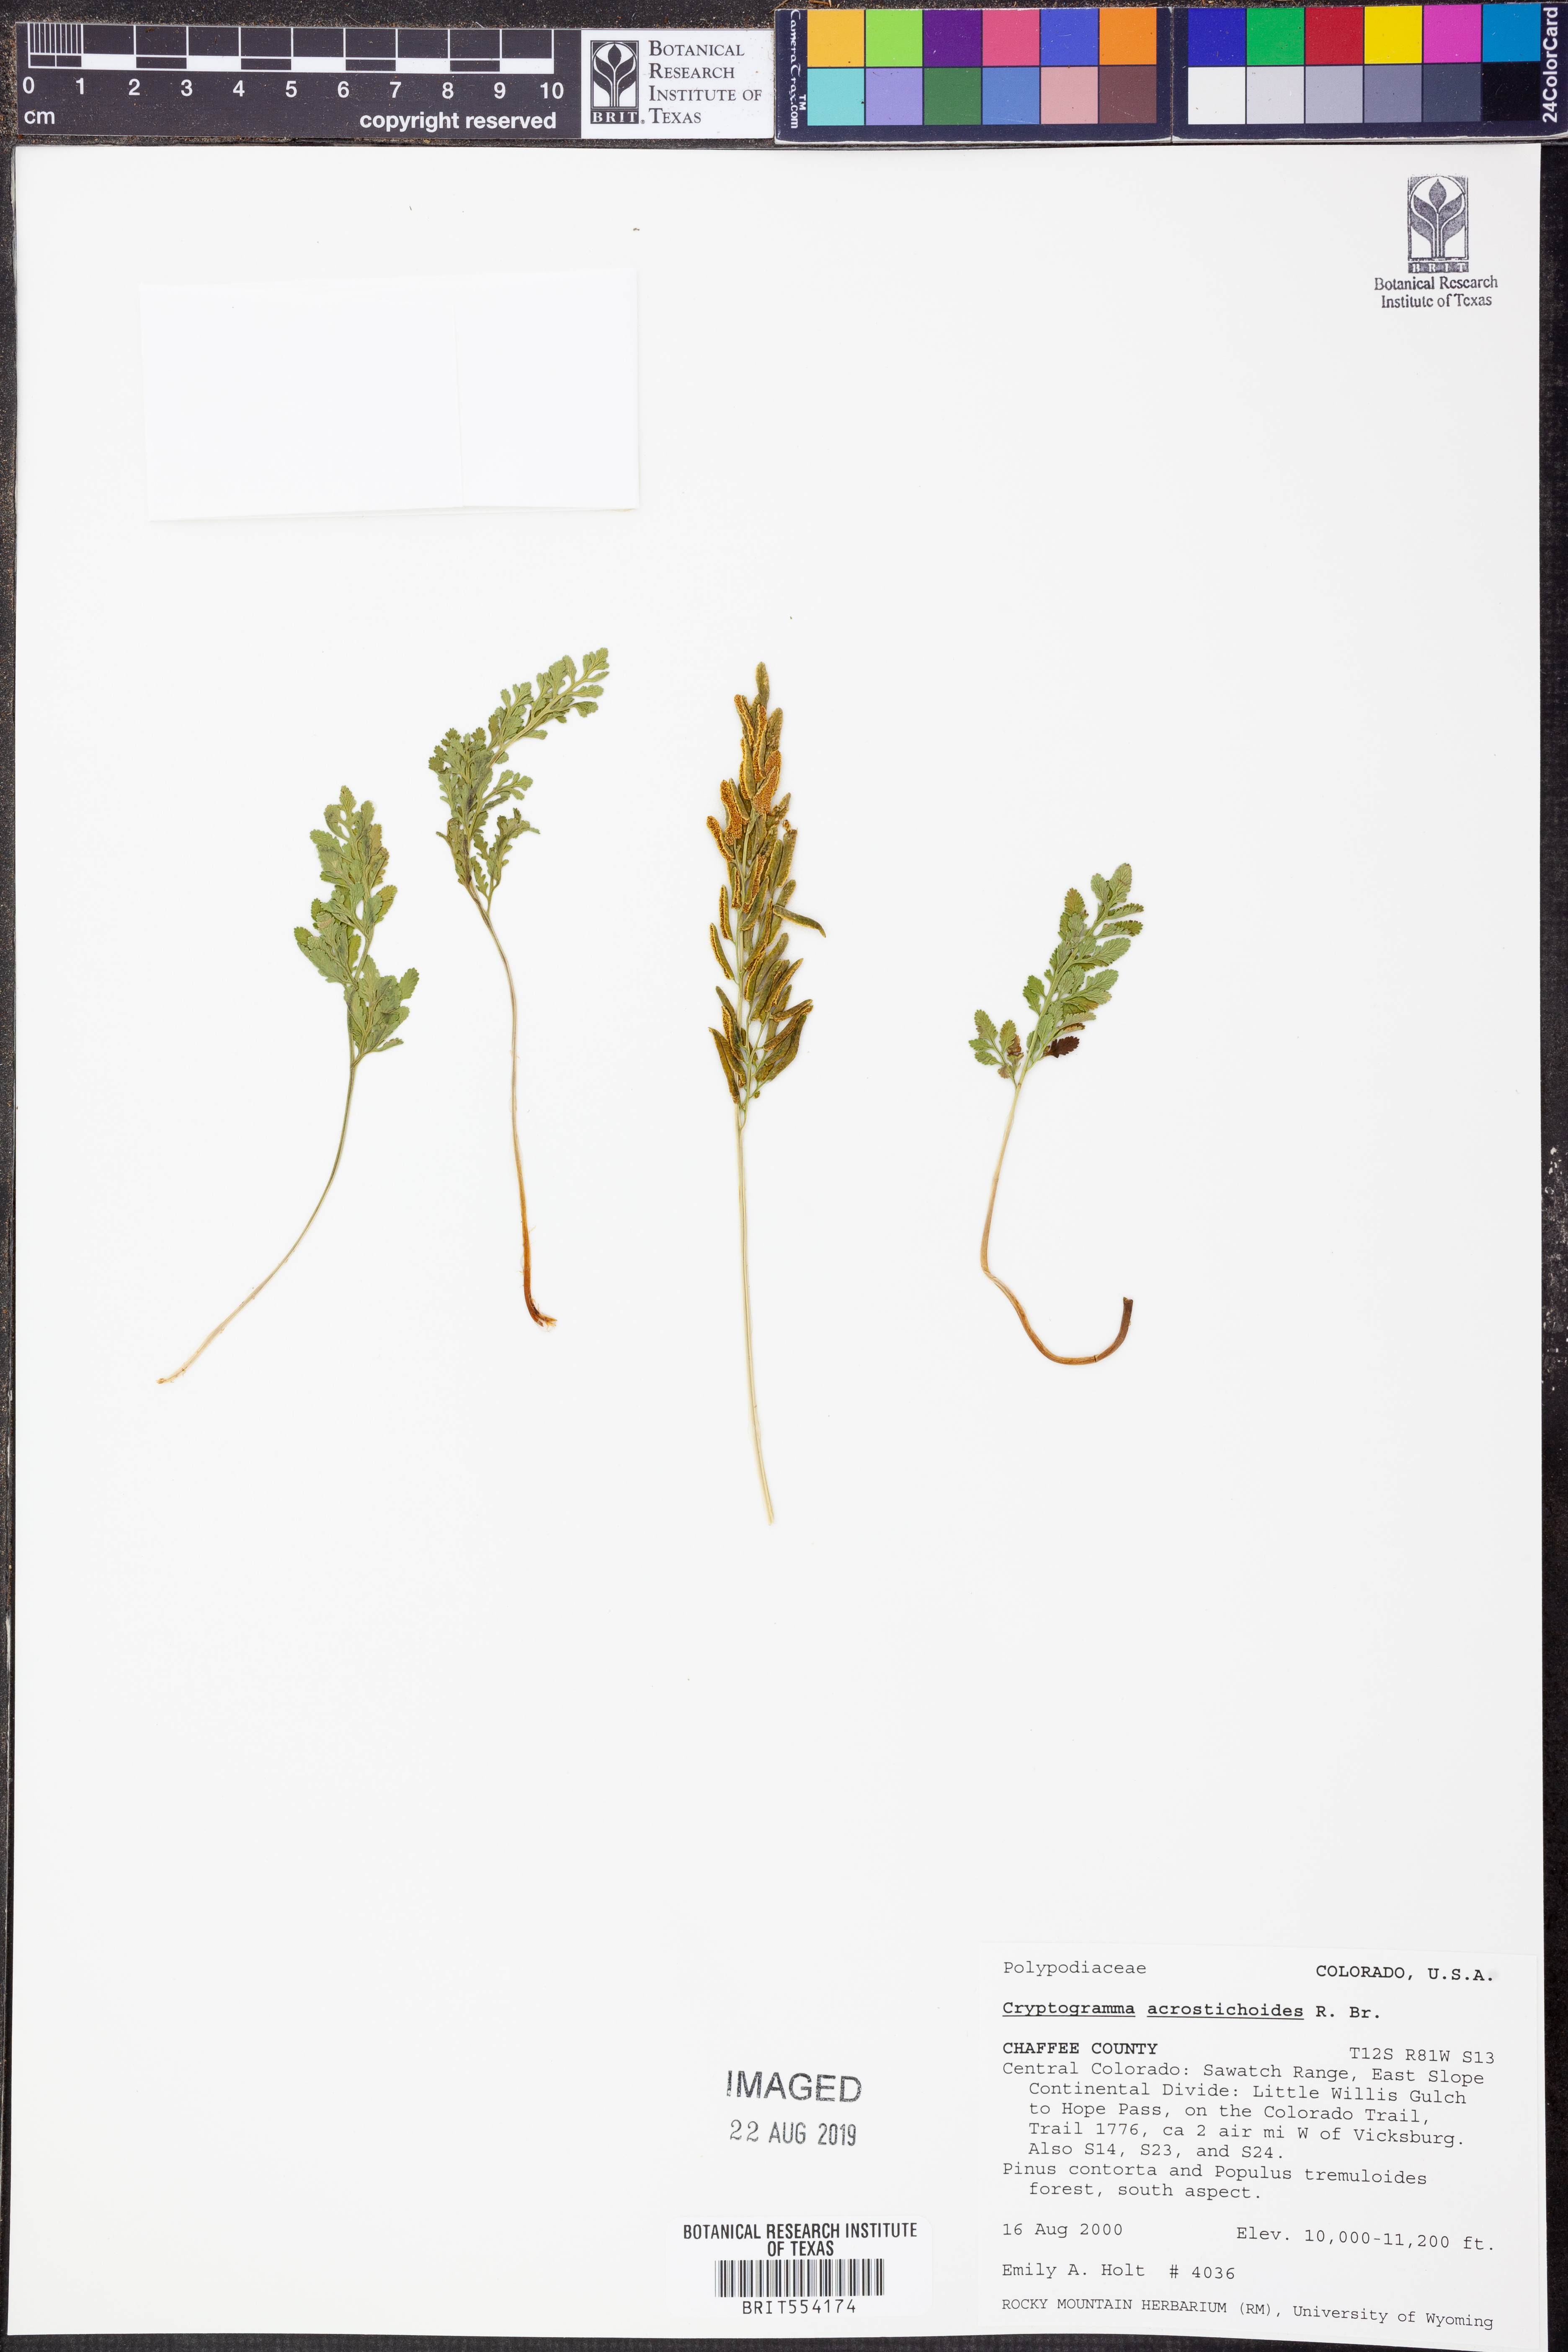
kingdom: Plantae
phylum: Tracheophyta
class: Polypodiopsida
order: Polypodiales
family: Pteridaceae
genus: Cryptogramma
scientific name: Cryptogramma acrostichoides
